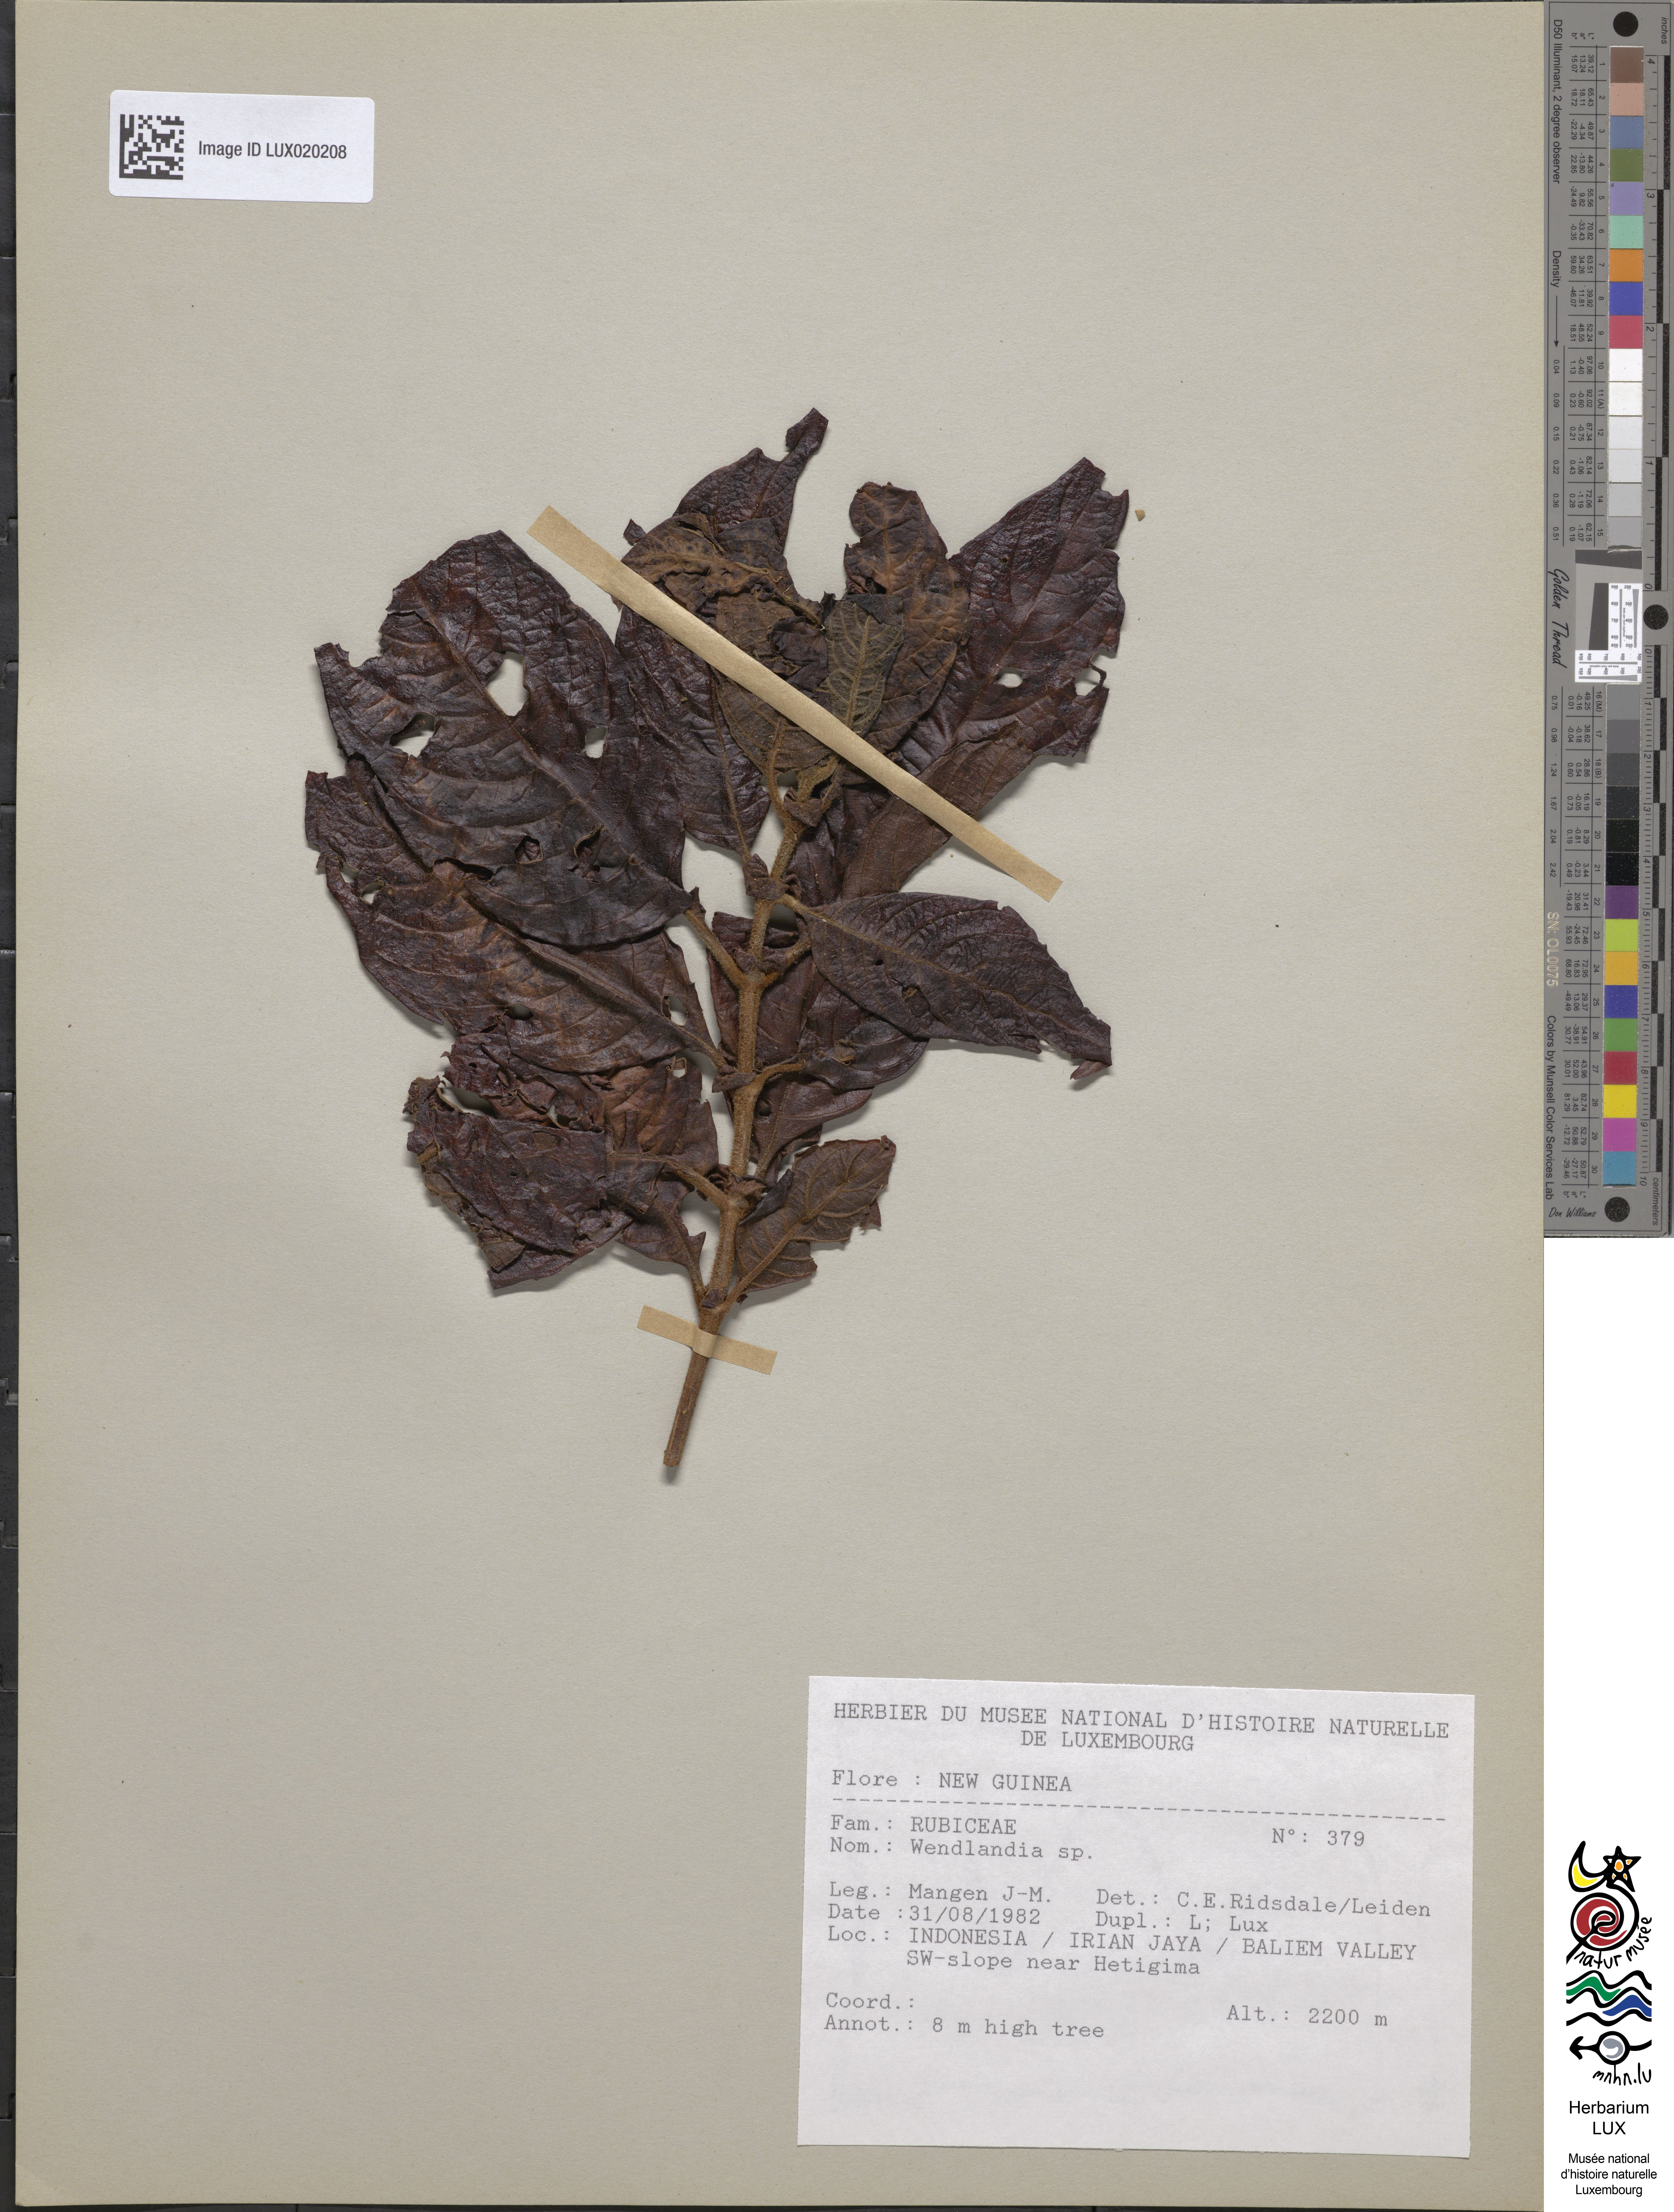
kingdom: Plantae
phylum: Tracheophyta
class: Magnoliopsida
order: Gentianales
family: Rubiaceae
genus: Wendlandia
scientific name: Wendlandia
